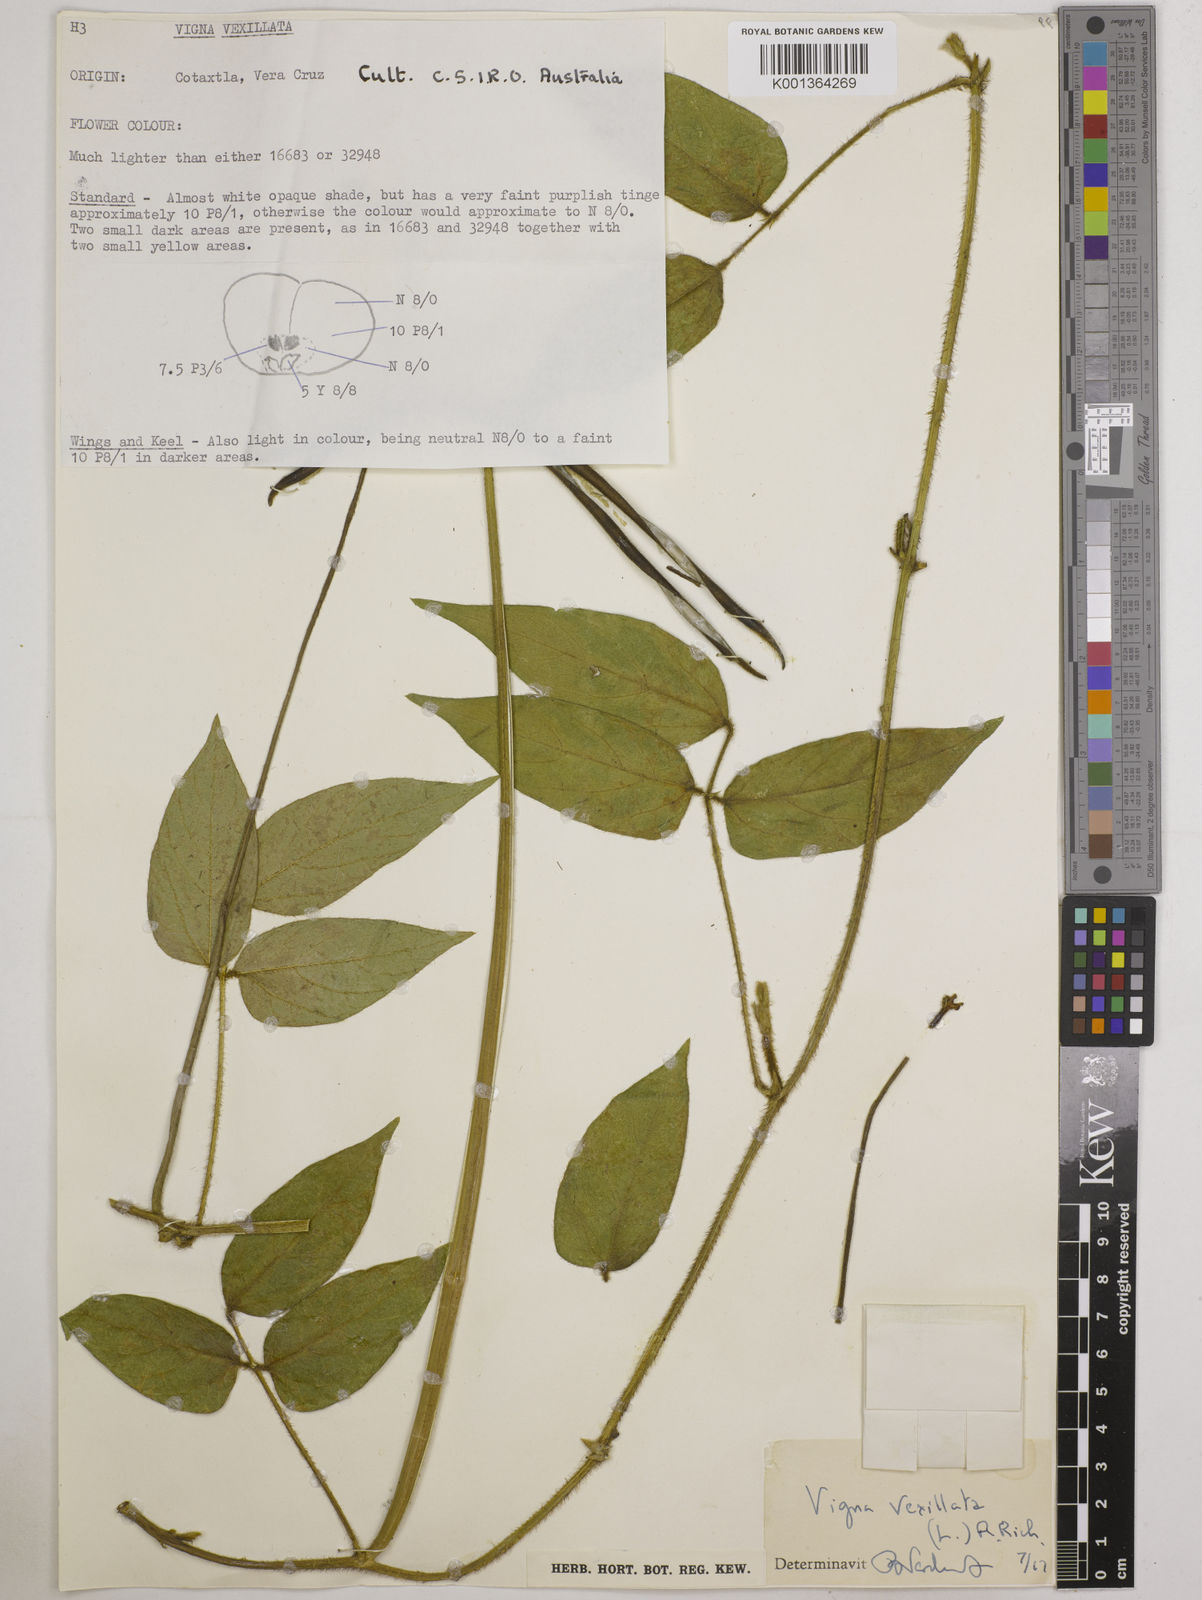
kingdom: Plantae
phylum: Tracheophyta
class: Magnoliopsida
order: Fabales
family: Fabaceae
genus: Vigna
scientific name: Vigna vexillata
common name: Zombi pea
